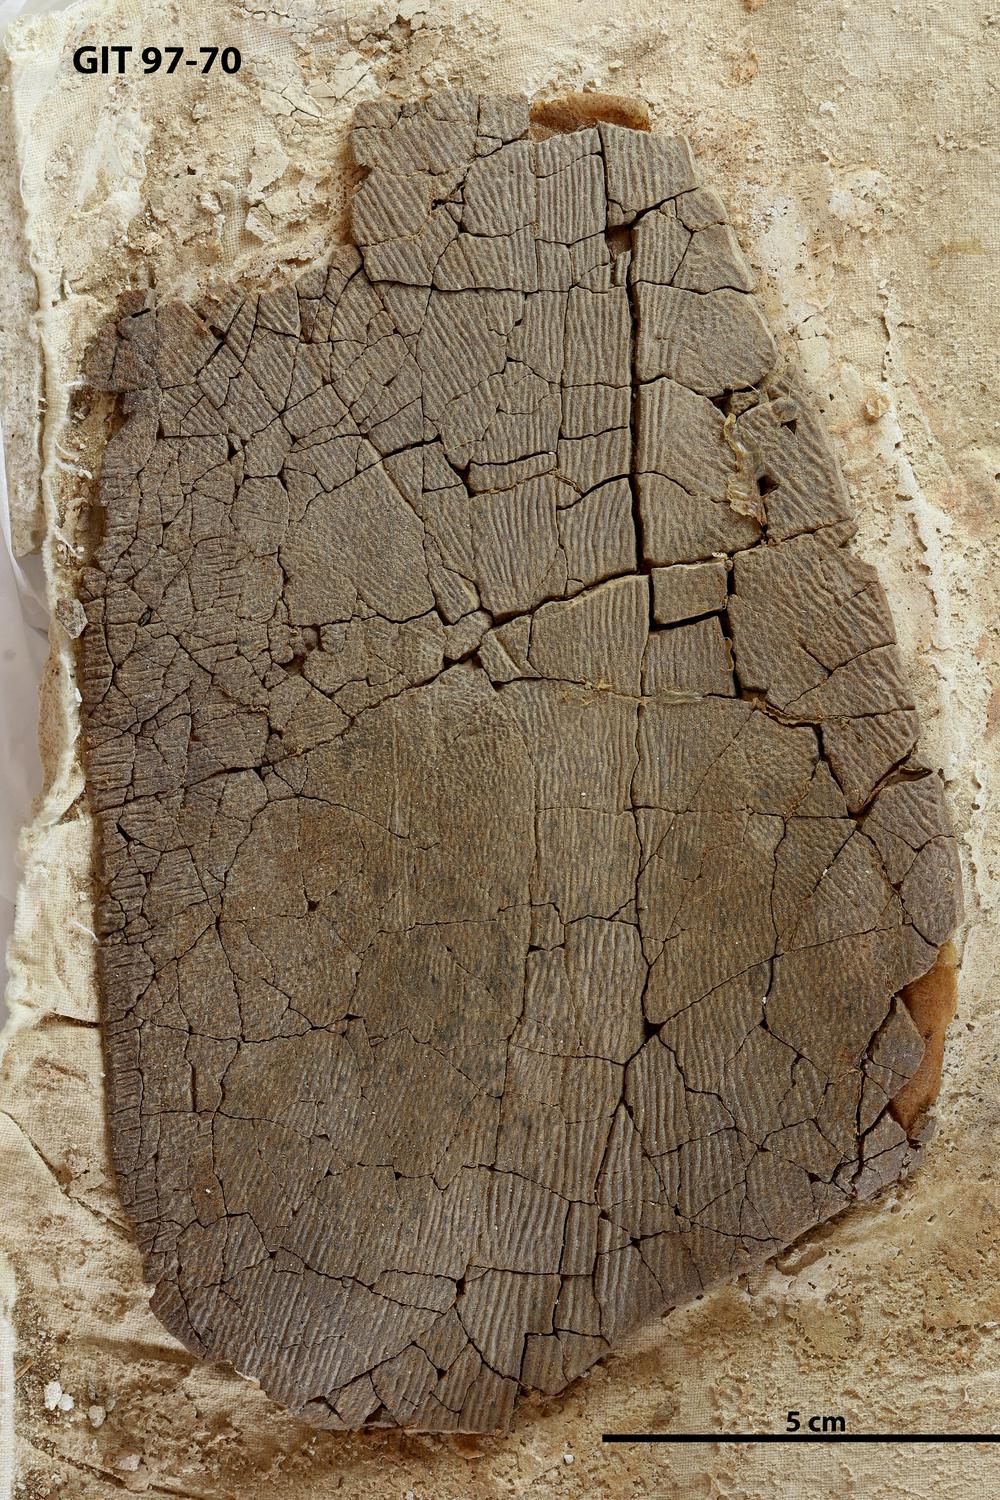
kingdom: Animalia
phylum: Chordata
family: Holonematidae
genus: Holonema
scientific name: Holonema
